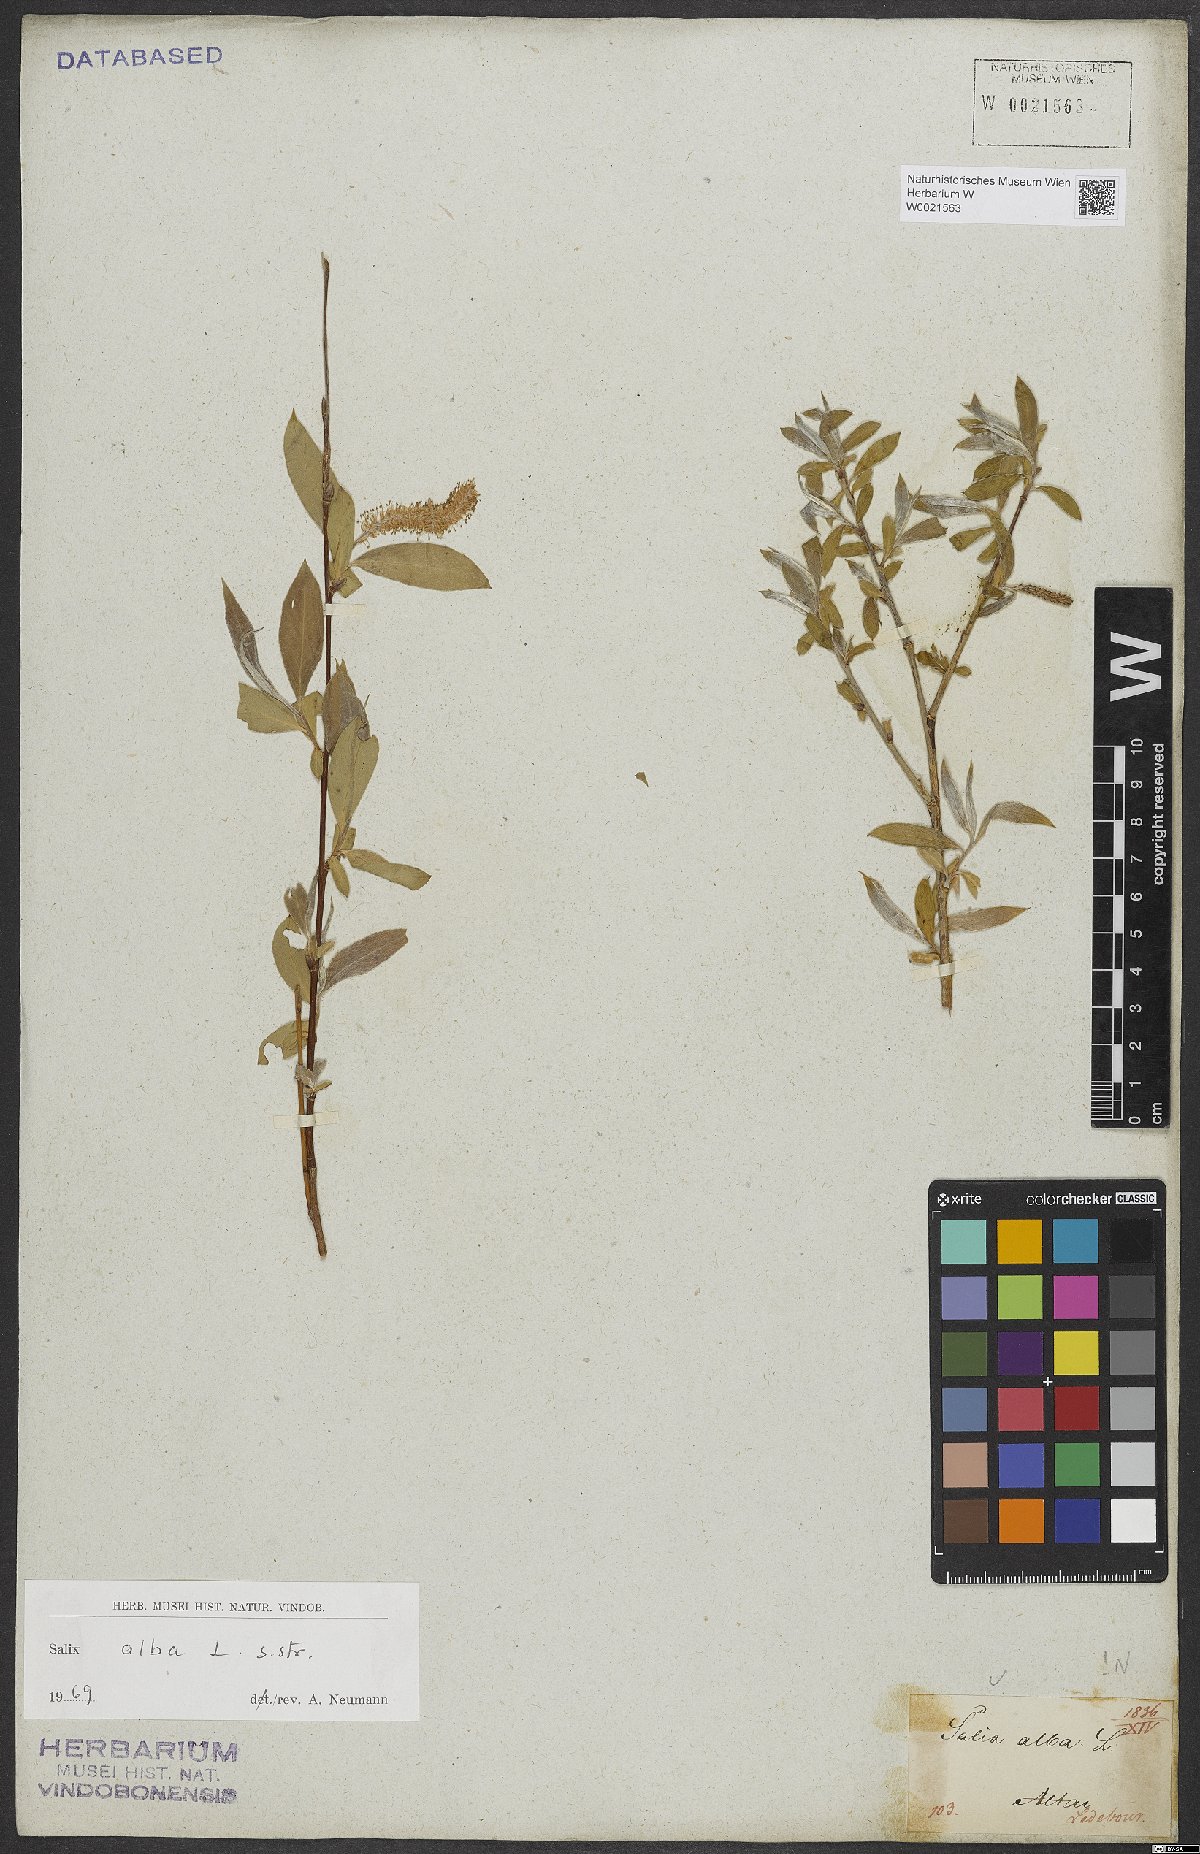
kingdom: Plantae
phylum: Tracheophyta
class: Magnoliopsida
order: Malpighiales
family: Salicaceae
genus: Salix
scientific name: Salix alba
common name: White willow
